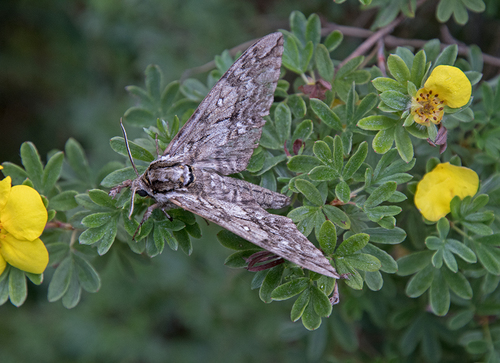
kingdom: Animalia
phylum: Arthropoda
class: Insecta
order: Lepidoptera
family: Sphingidae
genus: Ceratomia
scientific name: Ceratomia undulosa
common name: Waved sphinx
